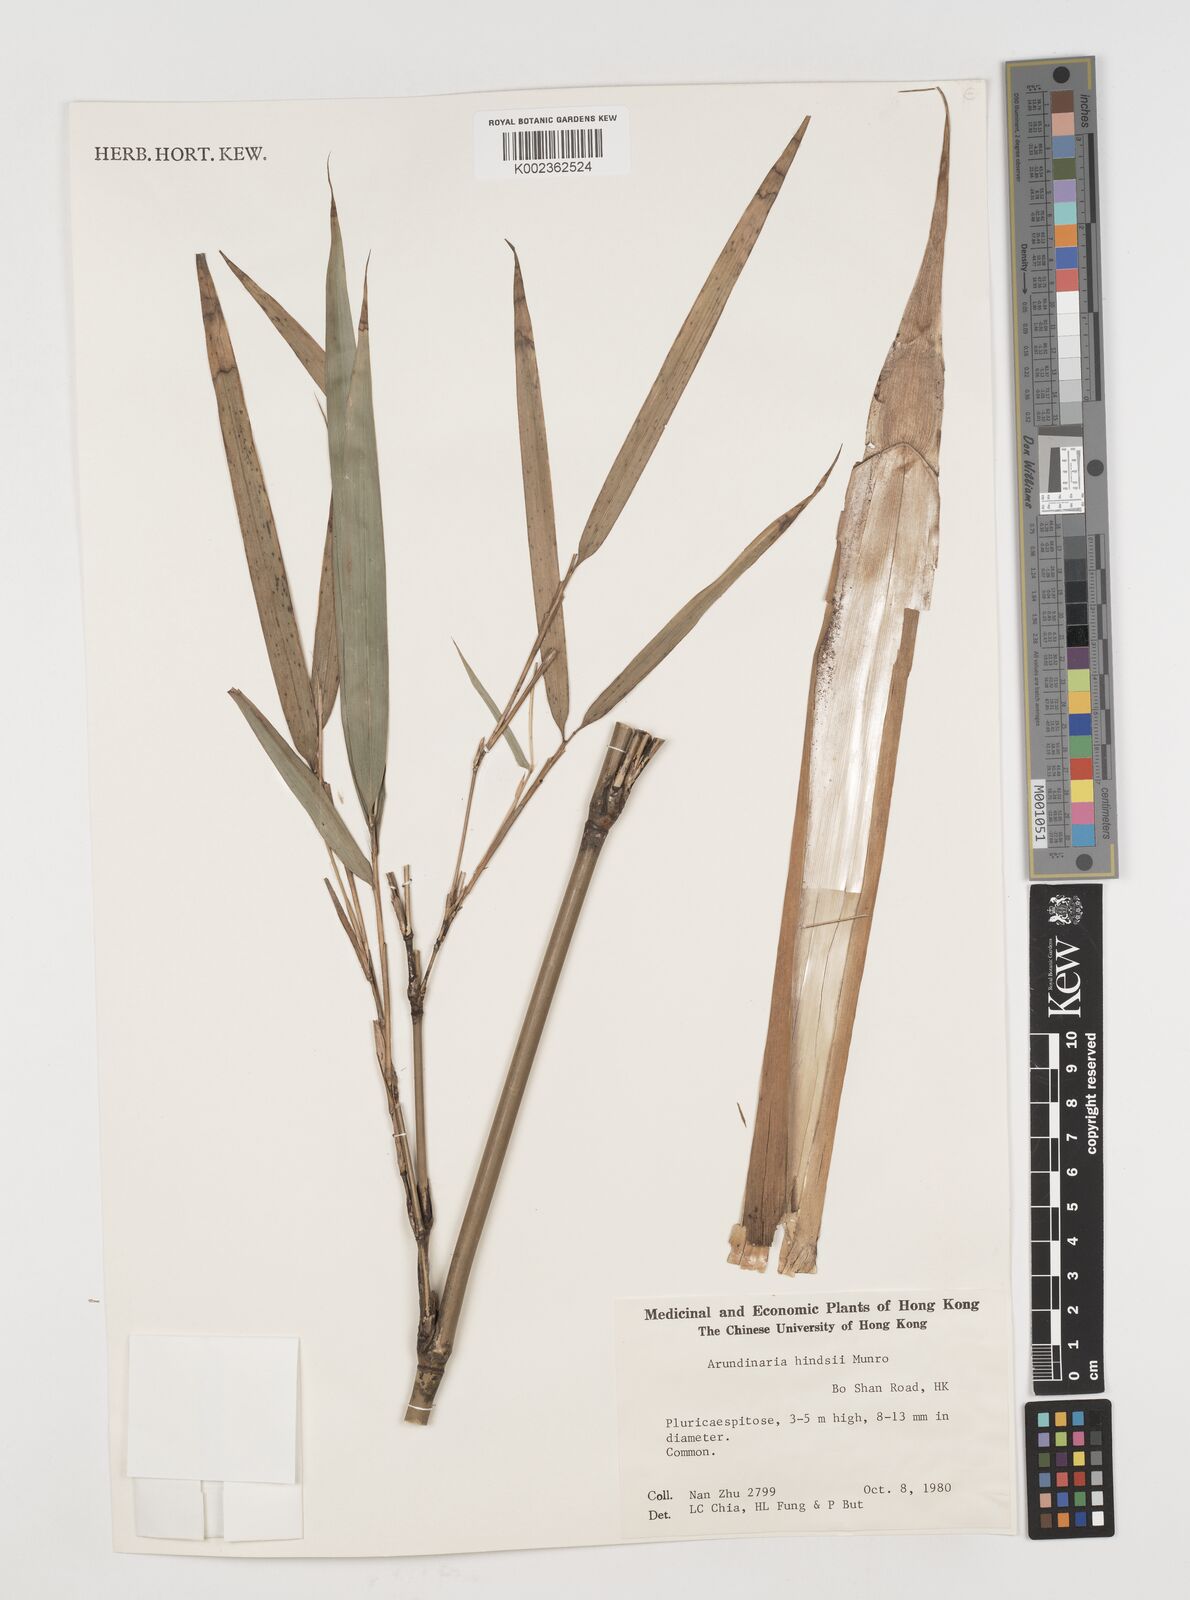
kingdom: Plantae
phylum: Tracheophyta
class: Liliopsida
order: Poales
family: Poaceae
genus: Pseudosasa
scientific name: Pseudosasa hindsii
